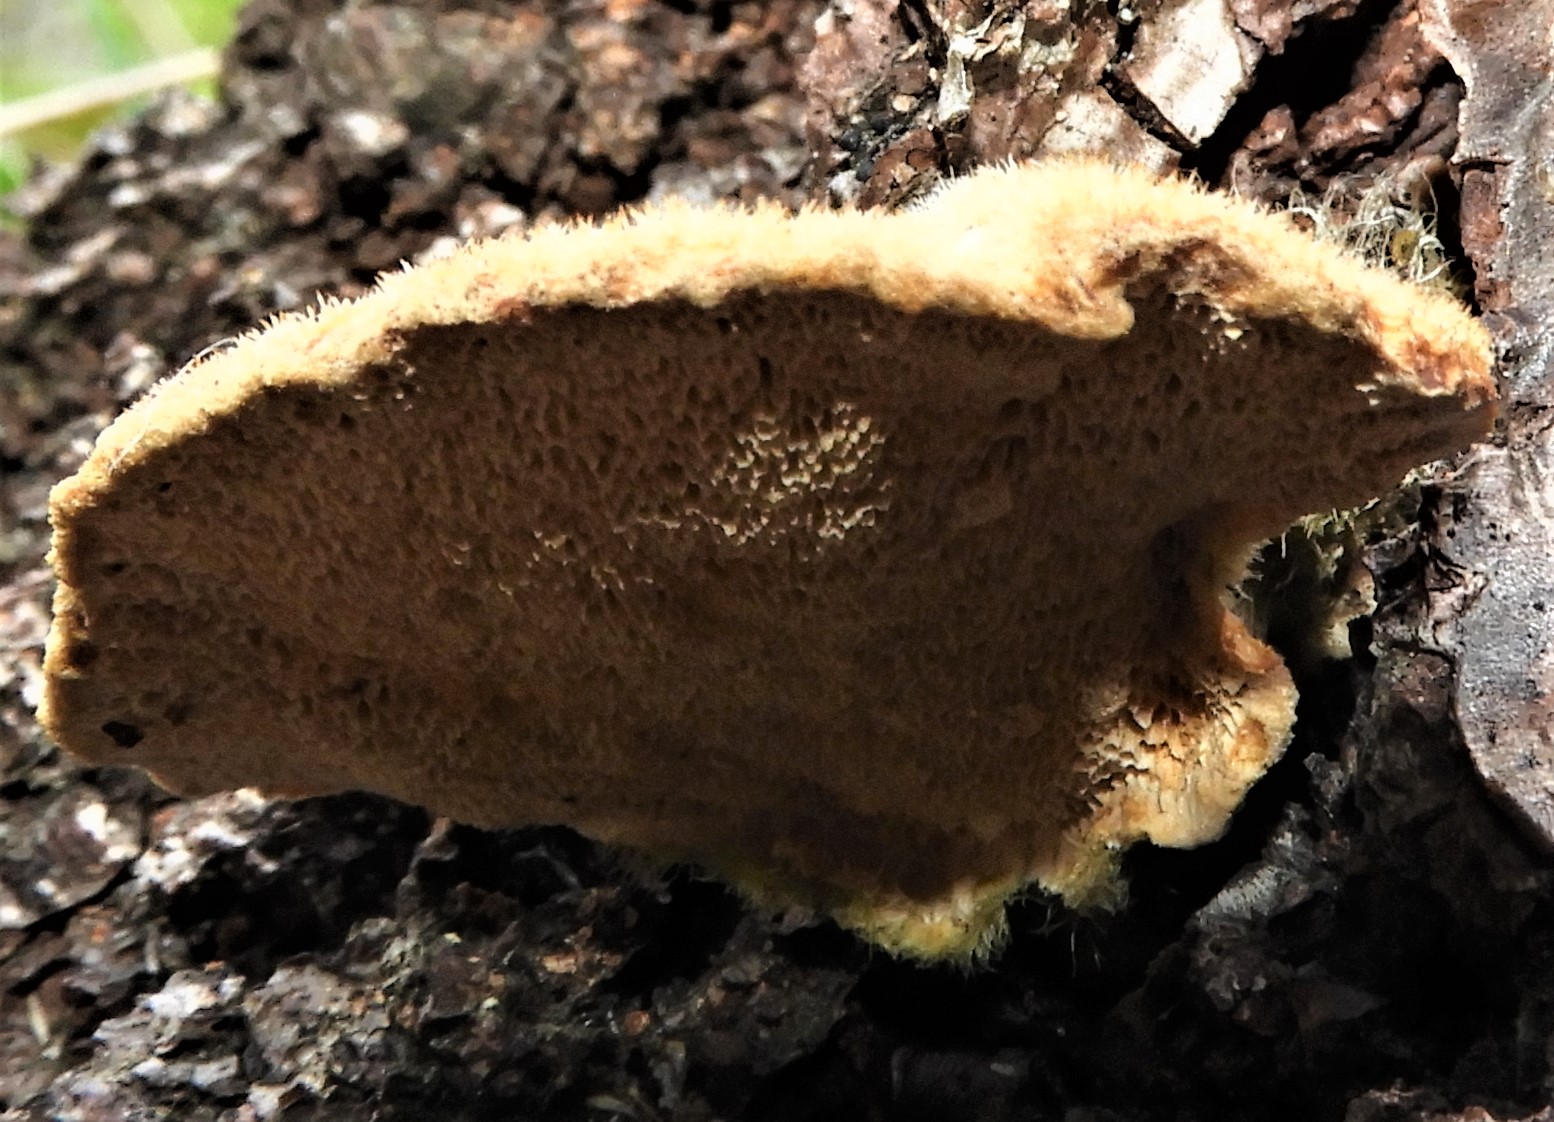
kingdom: Fungi
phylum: Basidiomycota
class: Agaricomycetes
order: Polyporales
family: Polyporaceae
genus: Trametes
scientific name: Trametes hirsuta
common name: håret læderporesvamp
